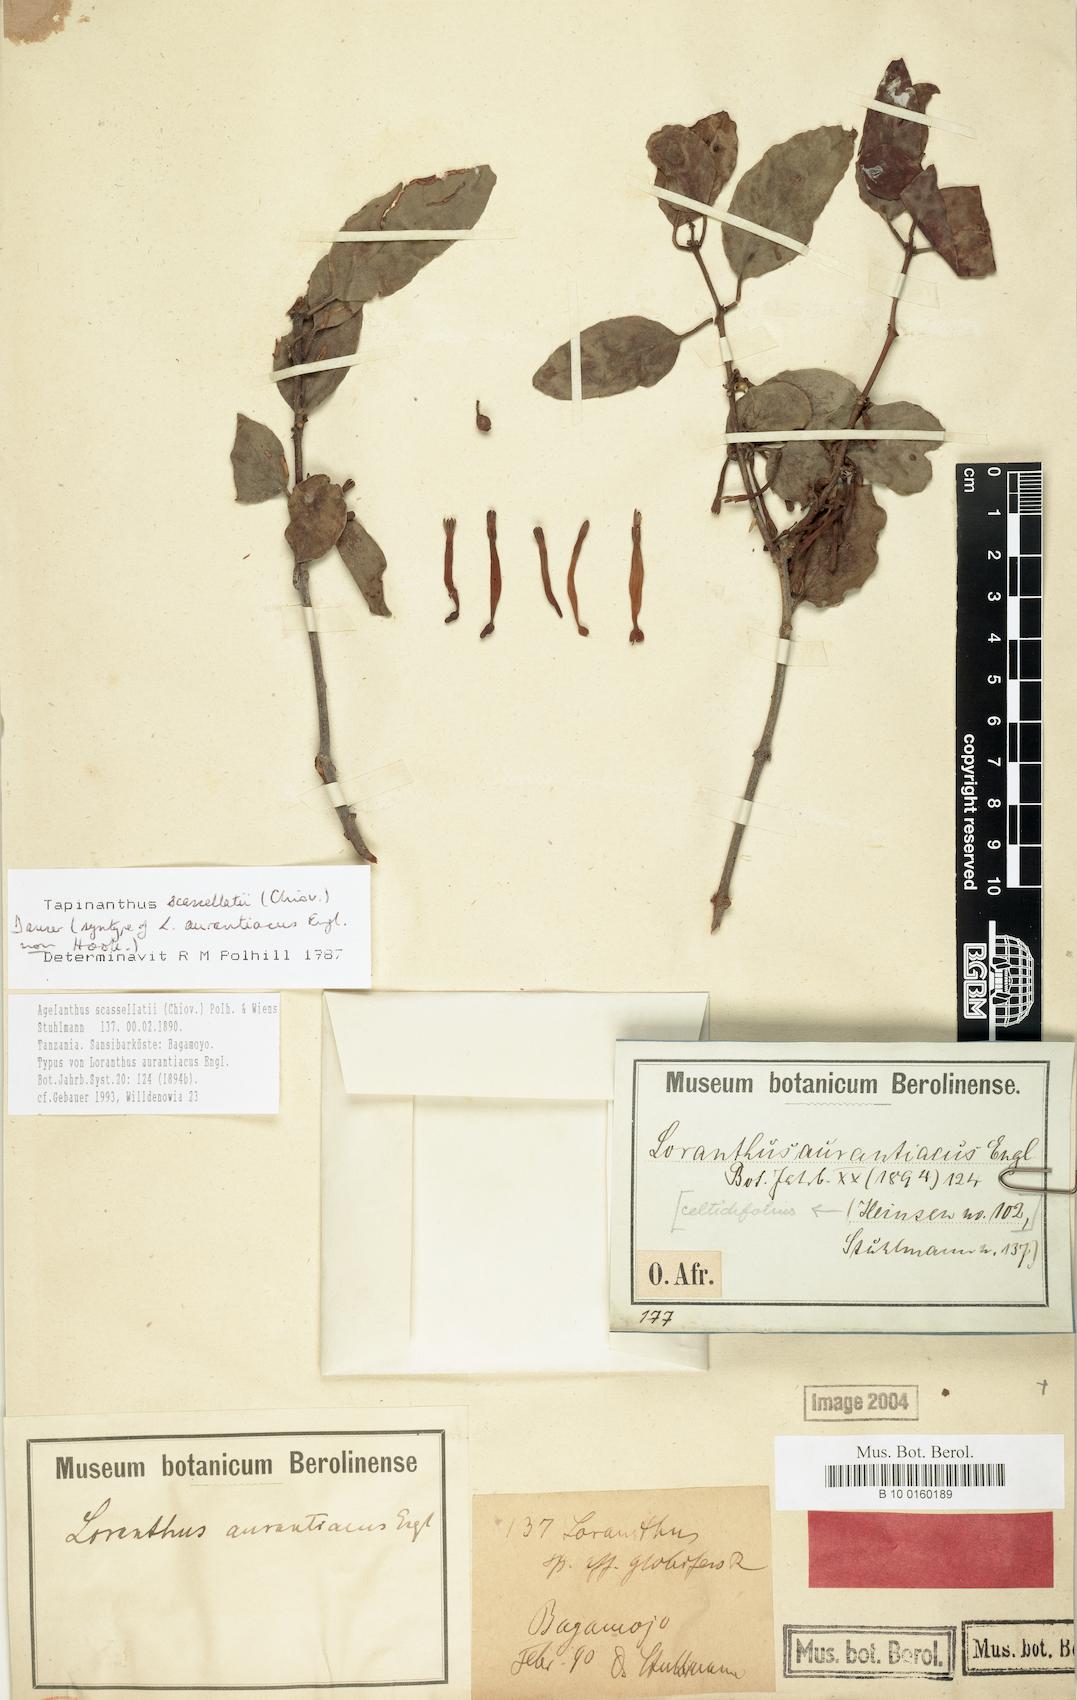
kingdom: Plantae
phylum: Tracheophyta
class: Magnoliopsida
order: Santalales
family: Loranthaceae
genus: Agelanthus
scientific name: Agelanthus heteromorphus
